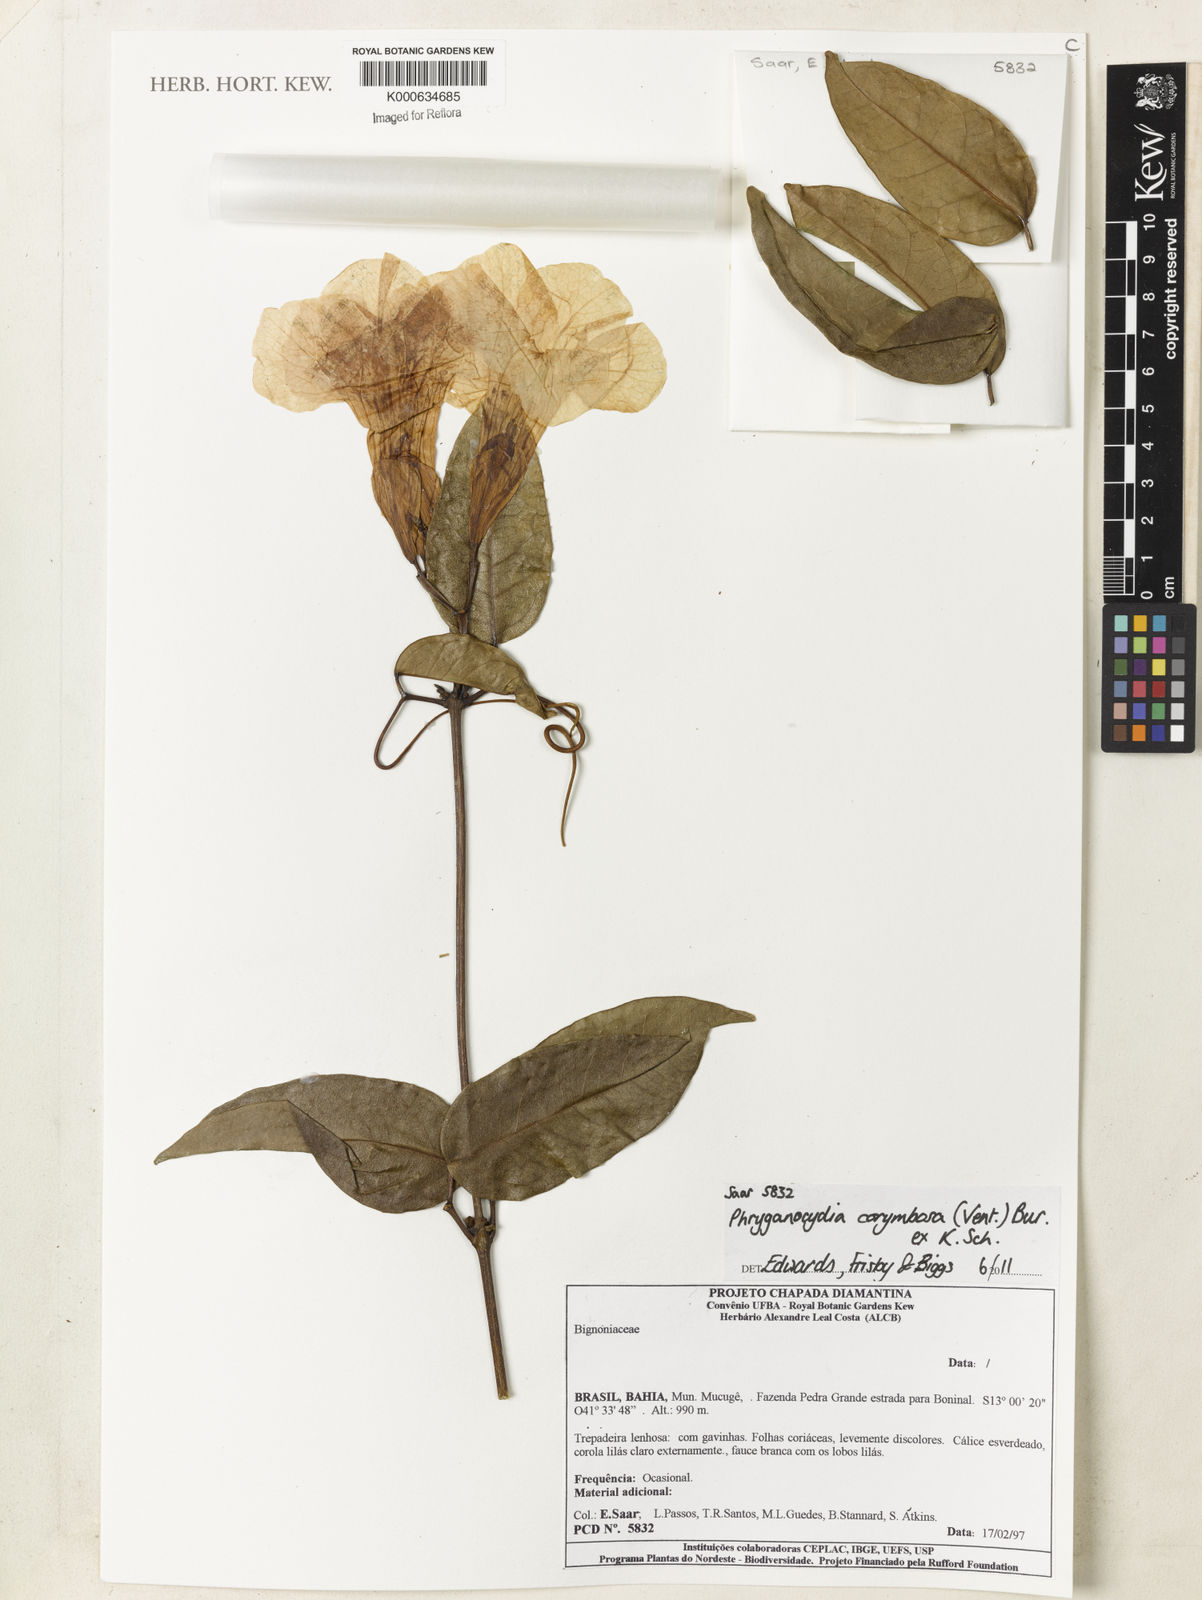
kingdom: Plantae
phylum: Tracheophyta
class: Magnoliopsida
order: Lamiales
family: Bignoniaceae
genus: Bignonia
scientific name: Bignonia corymbosa
